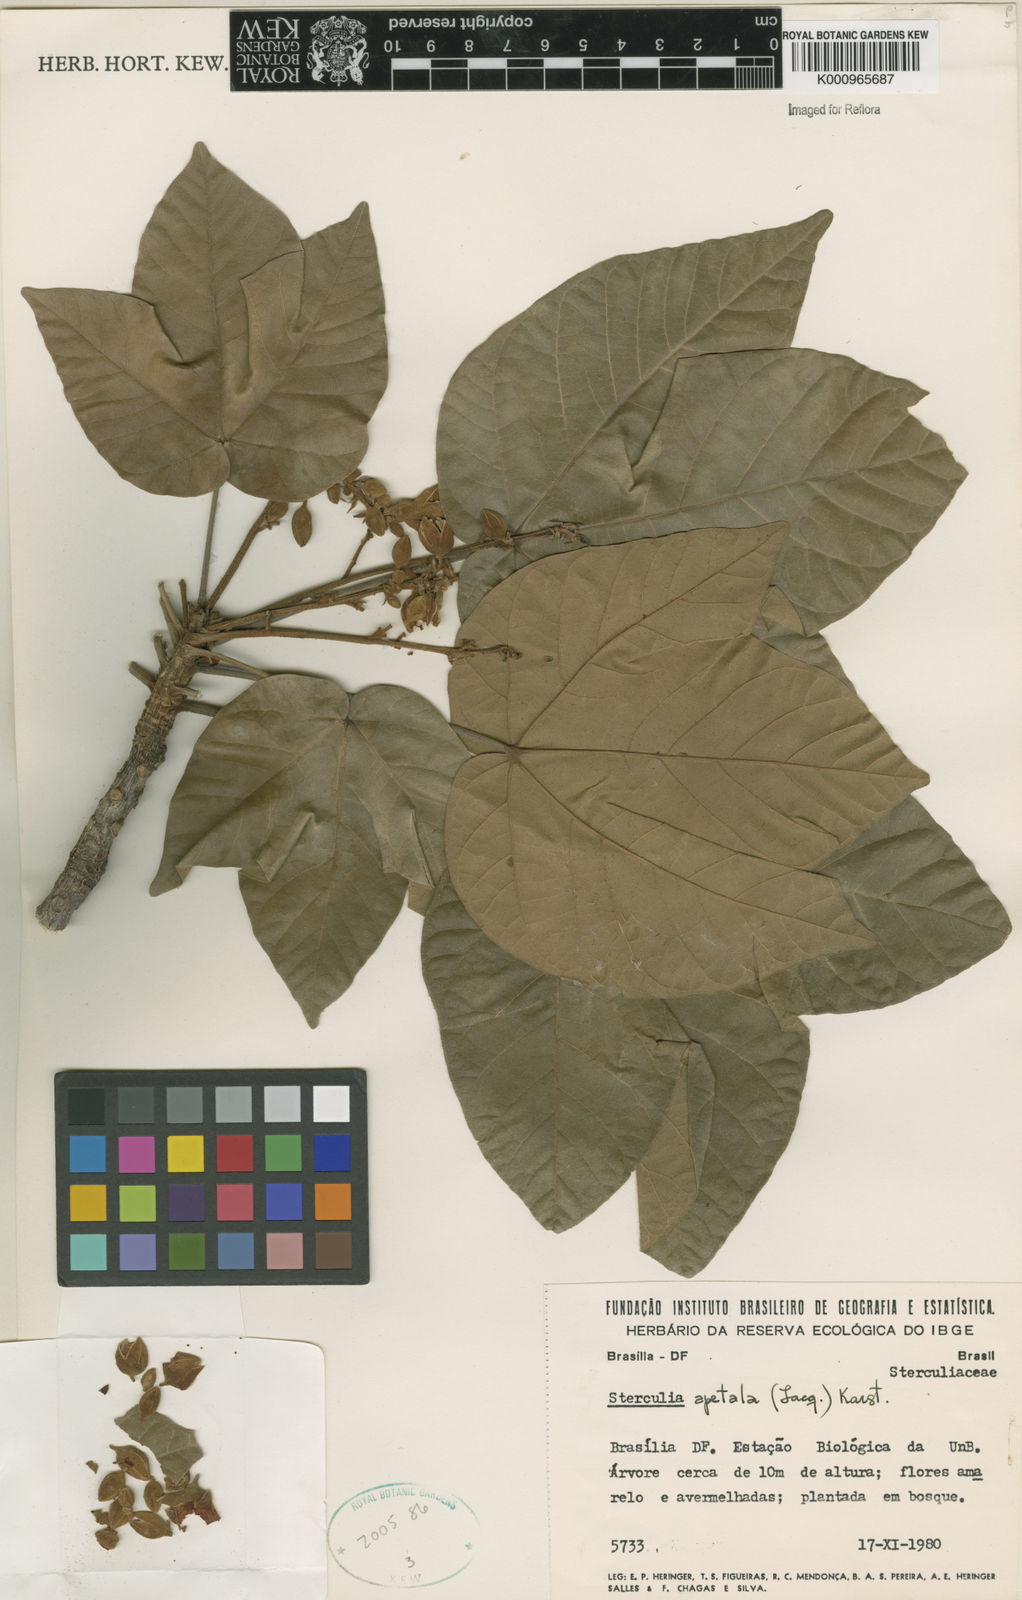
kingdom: Plantae
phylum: Tracheophyta
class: Magnoliopsida
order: Malvales
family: Malvaceae
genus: Sterculia
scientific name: Sterculia apetala
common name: Panama tree
